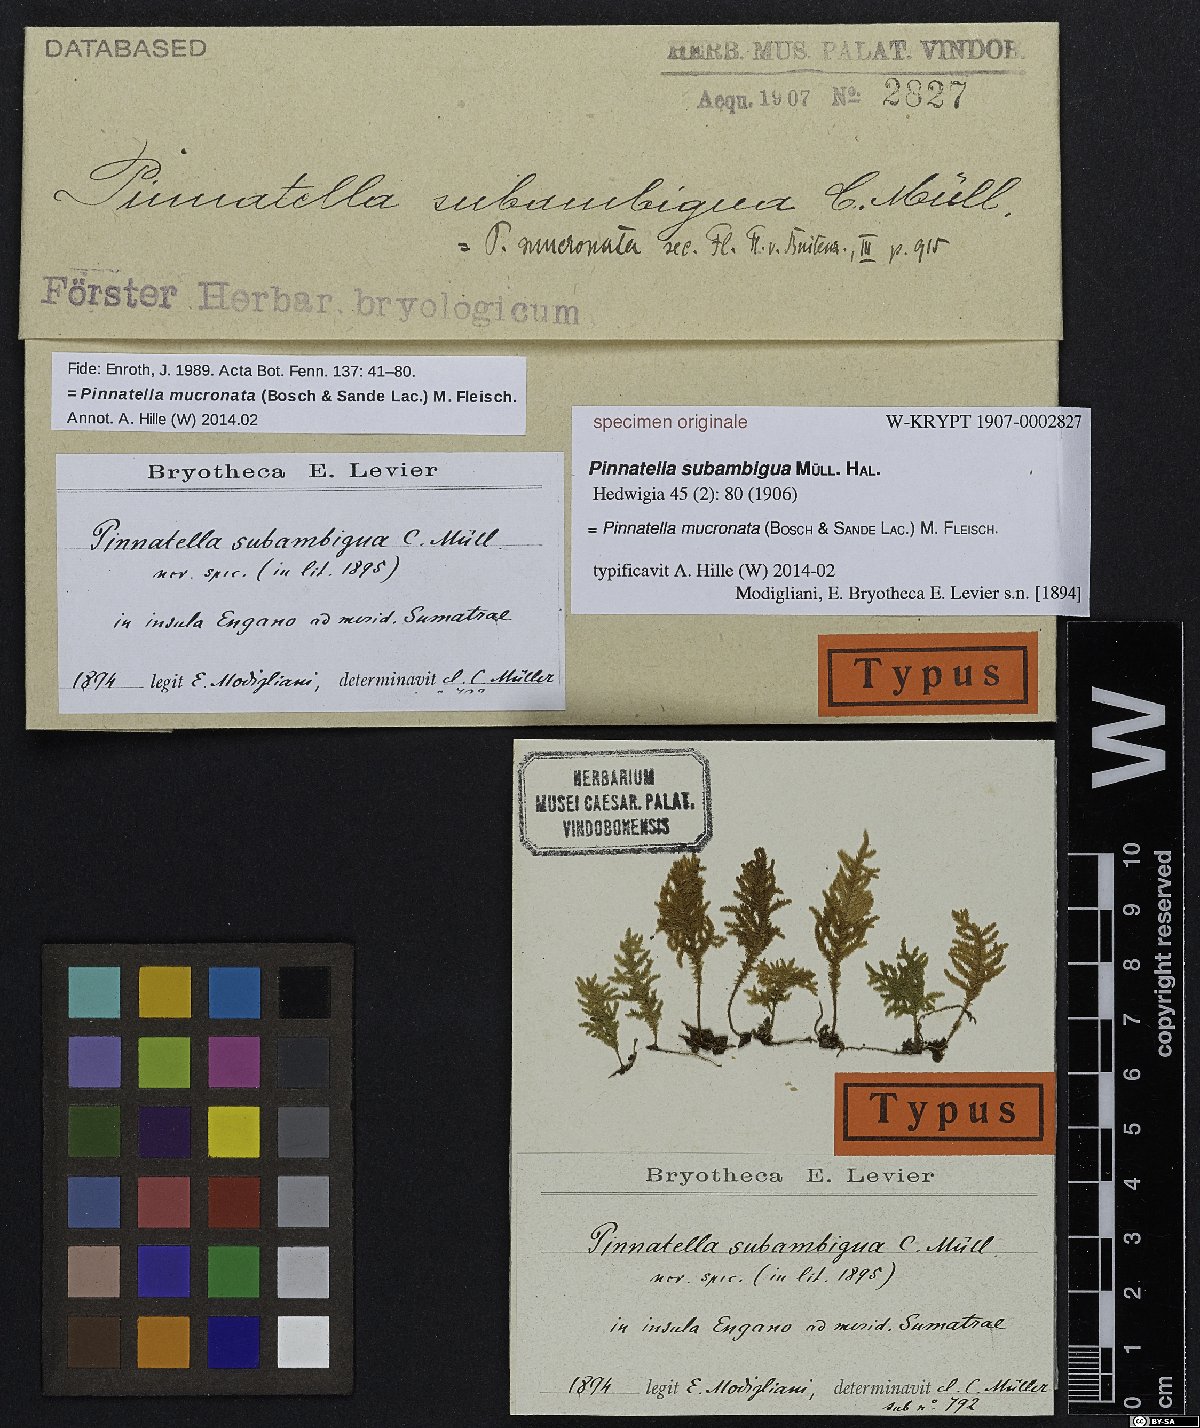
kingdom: Plantae
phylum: Bryophyta
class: Bryopsida
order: Hypnales
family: Neckeraceae
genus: Pinnatella
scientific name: Pinnatella
